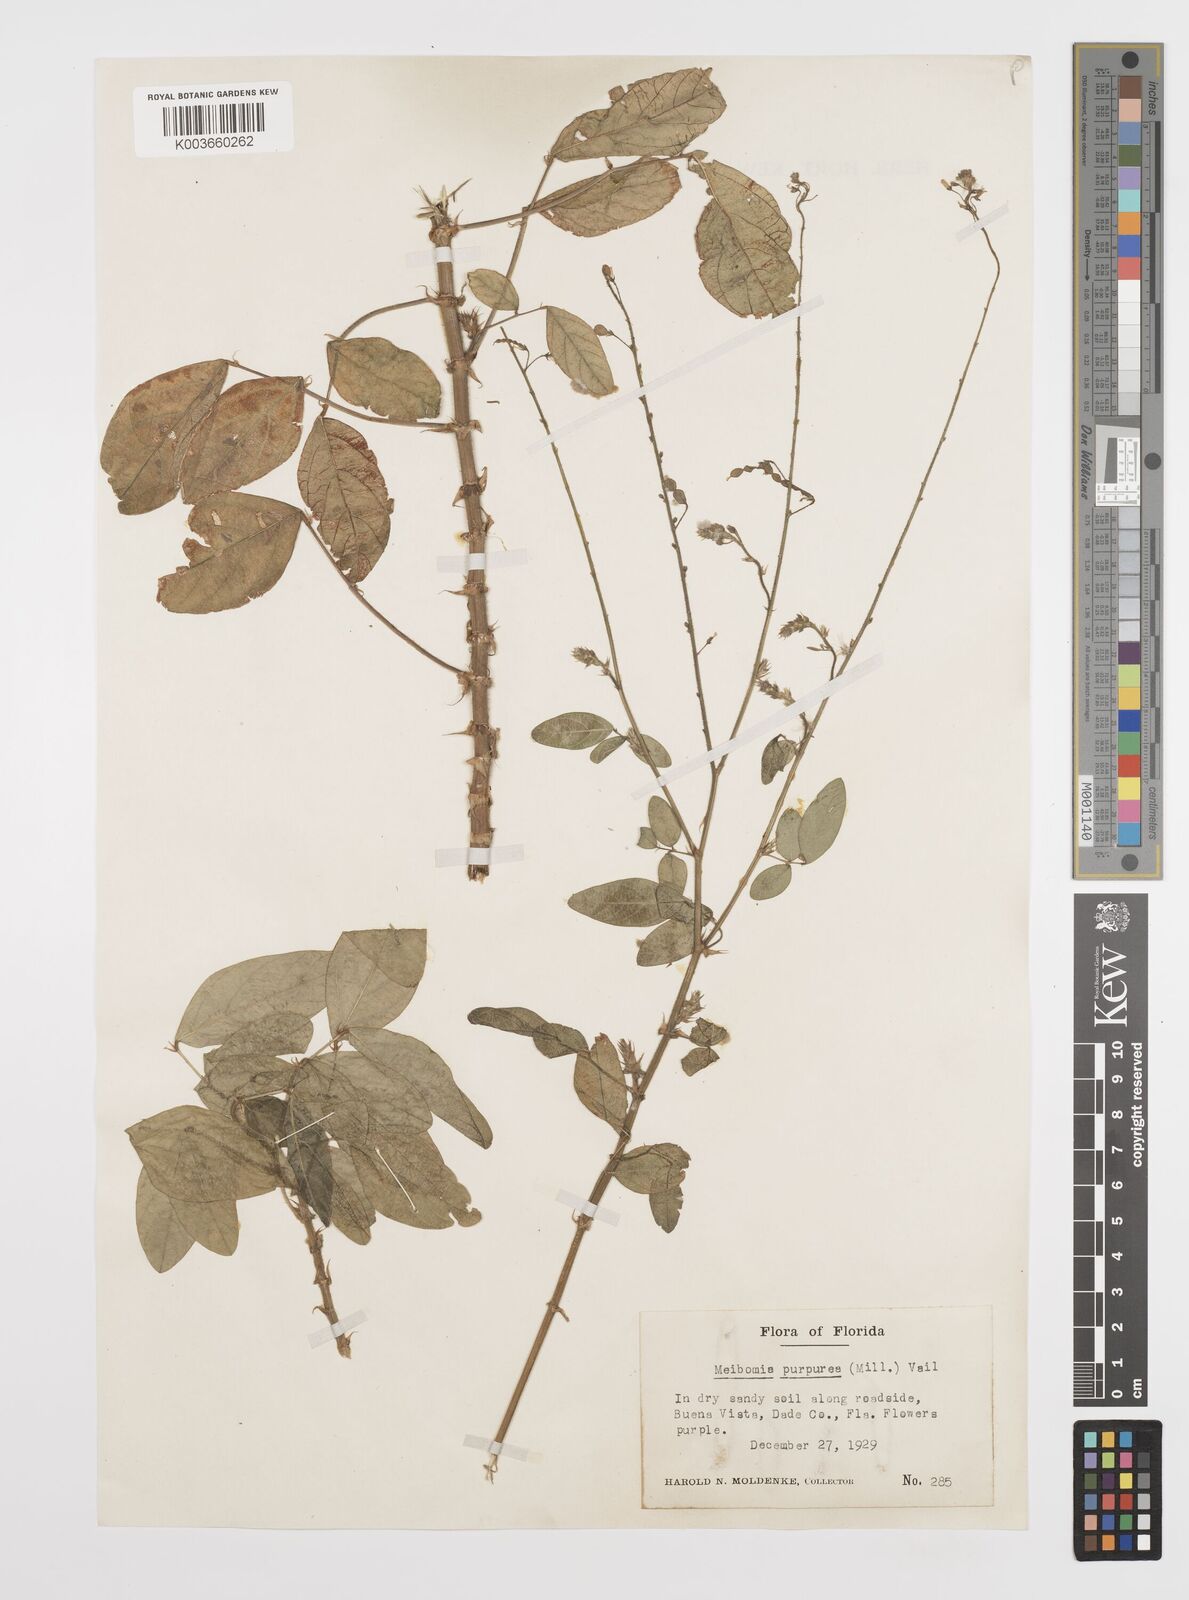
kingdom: Plantae
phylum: Tracheophyta
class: Magnoliopsida
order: Fabales
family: Fabaceae
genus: Desmodium
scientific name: Desmodium tortuosum
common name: Dixie ticktrefoil
